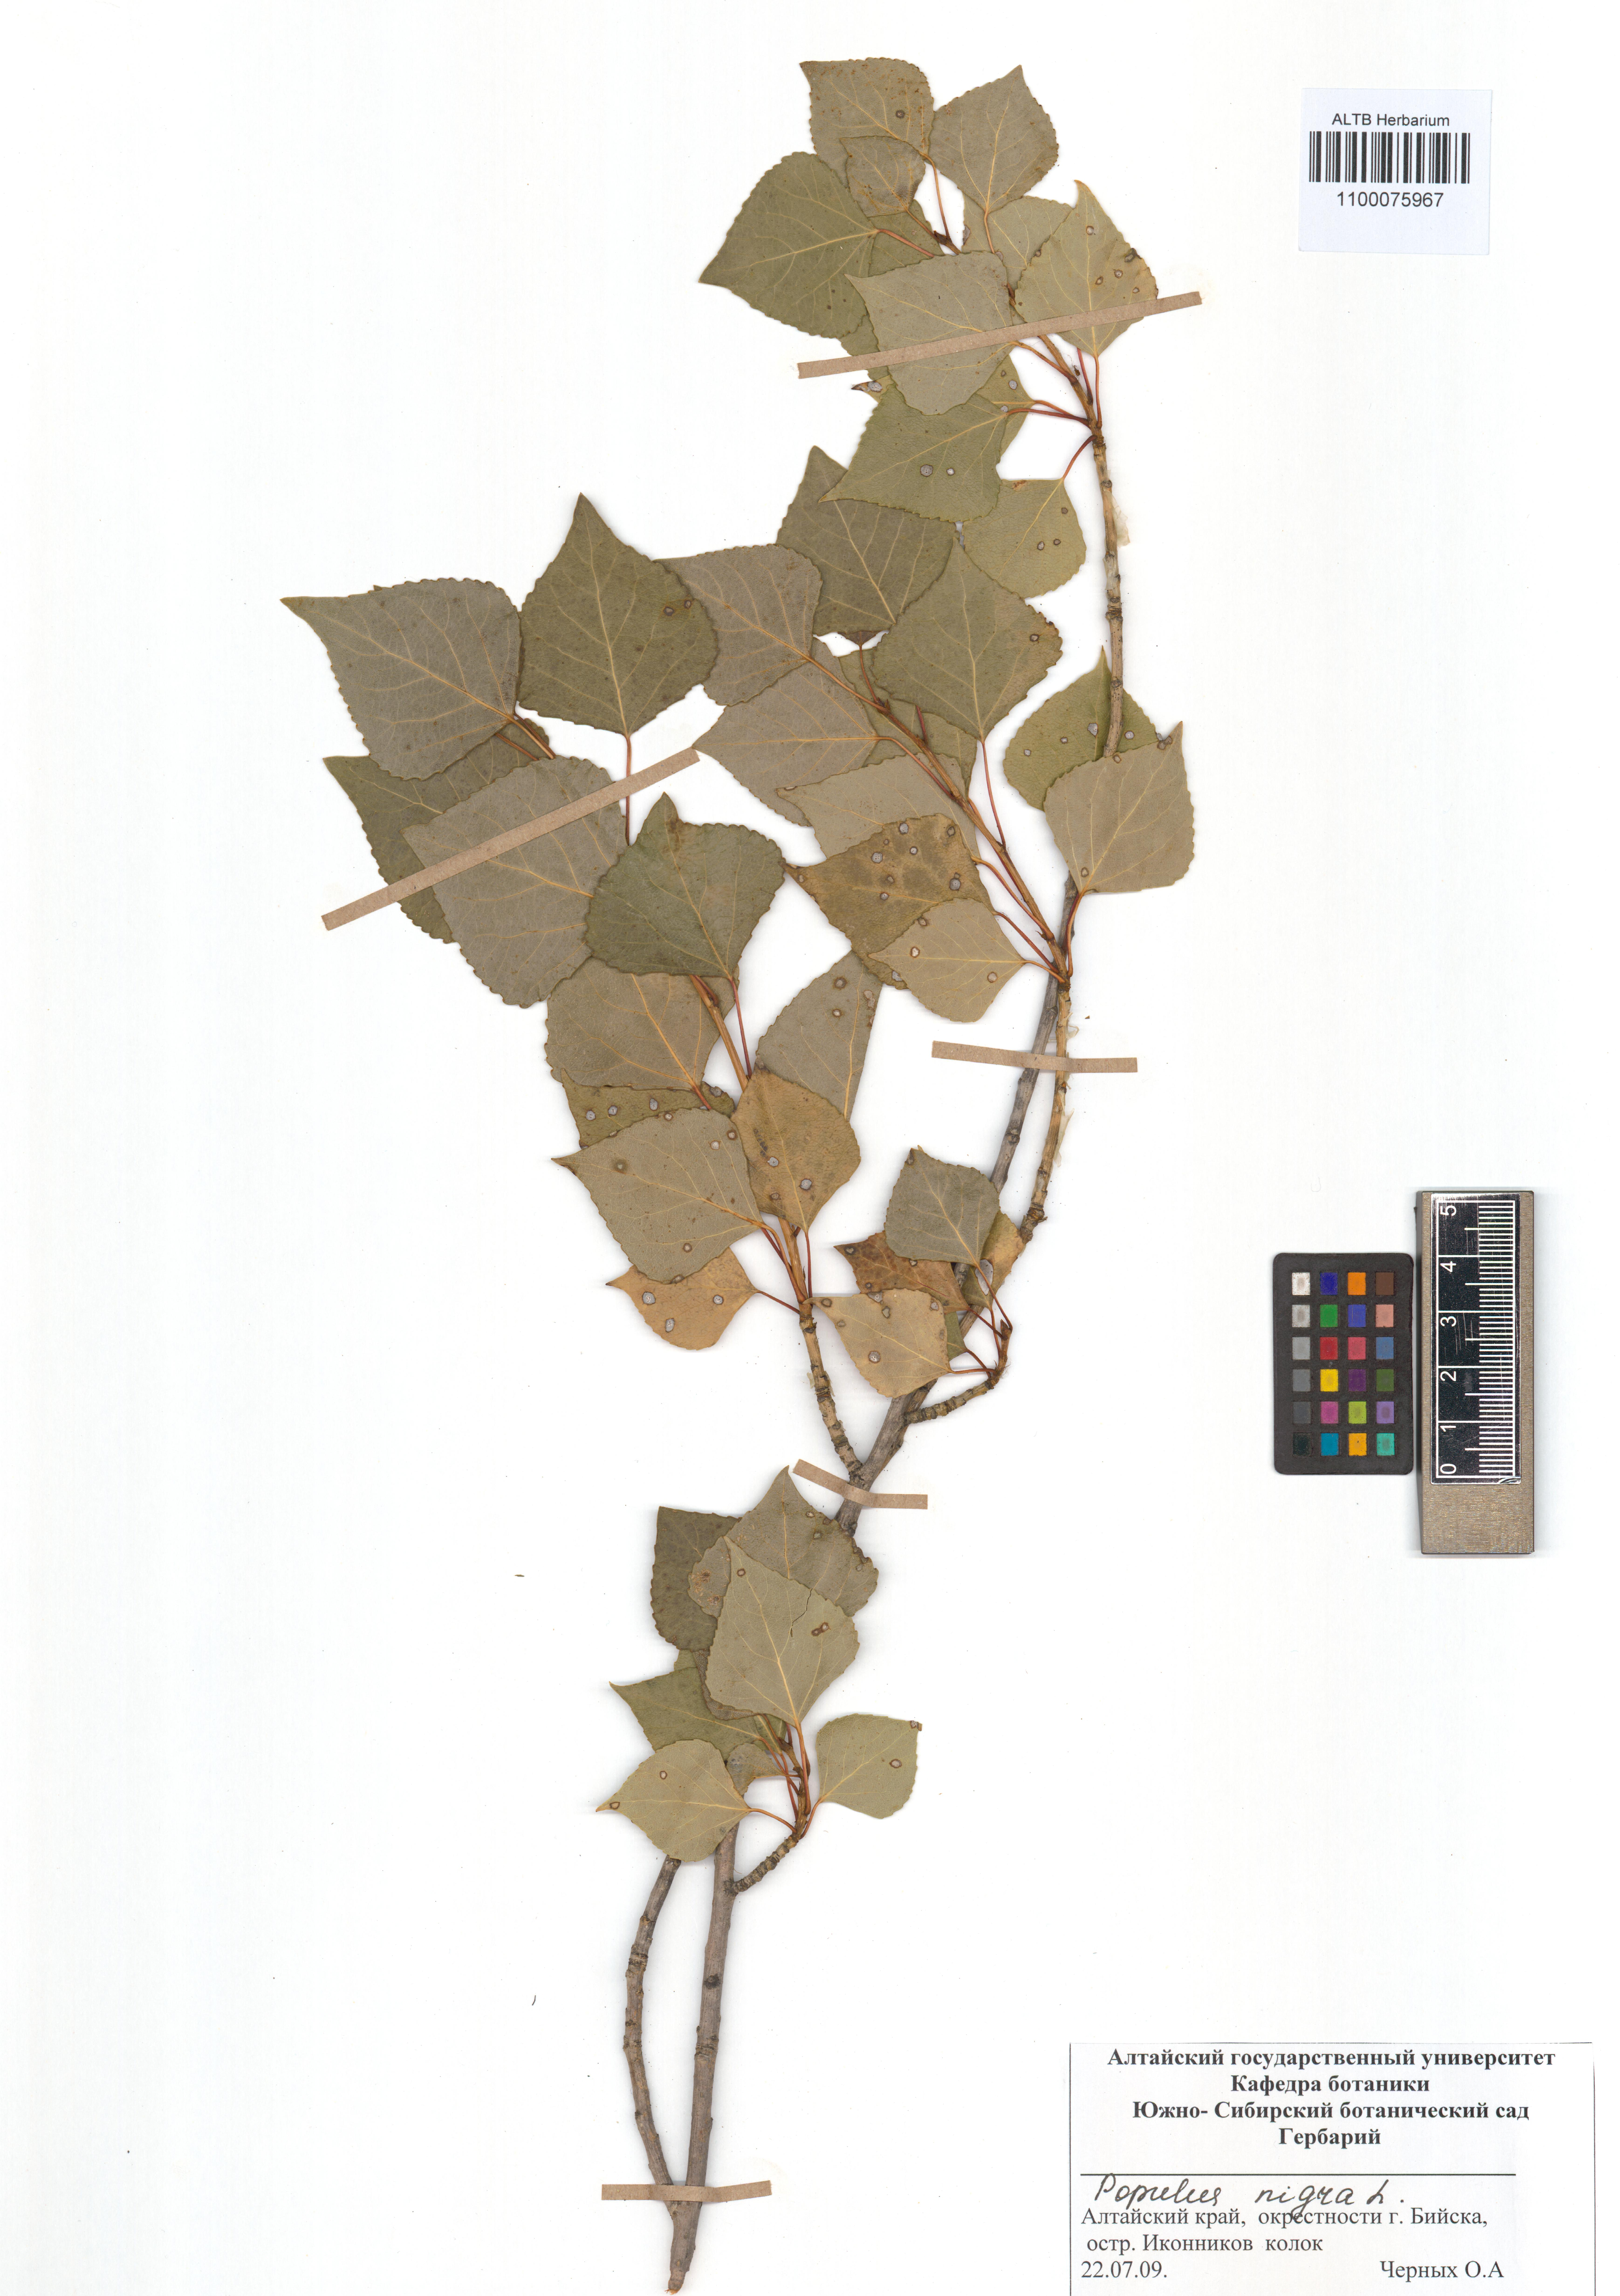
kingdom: Plantae
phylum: Tracheophyta
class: Magnoliopsida
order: Malpighiales
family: Salicaceae
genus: Populus
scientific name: Populus nigra
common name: Black poplar
